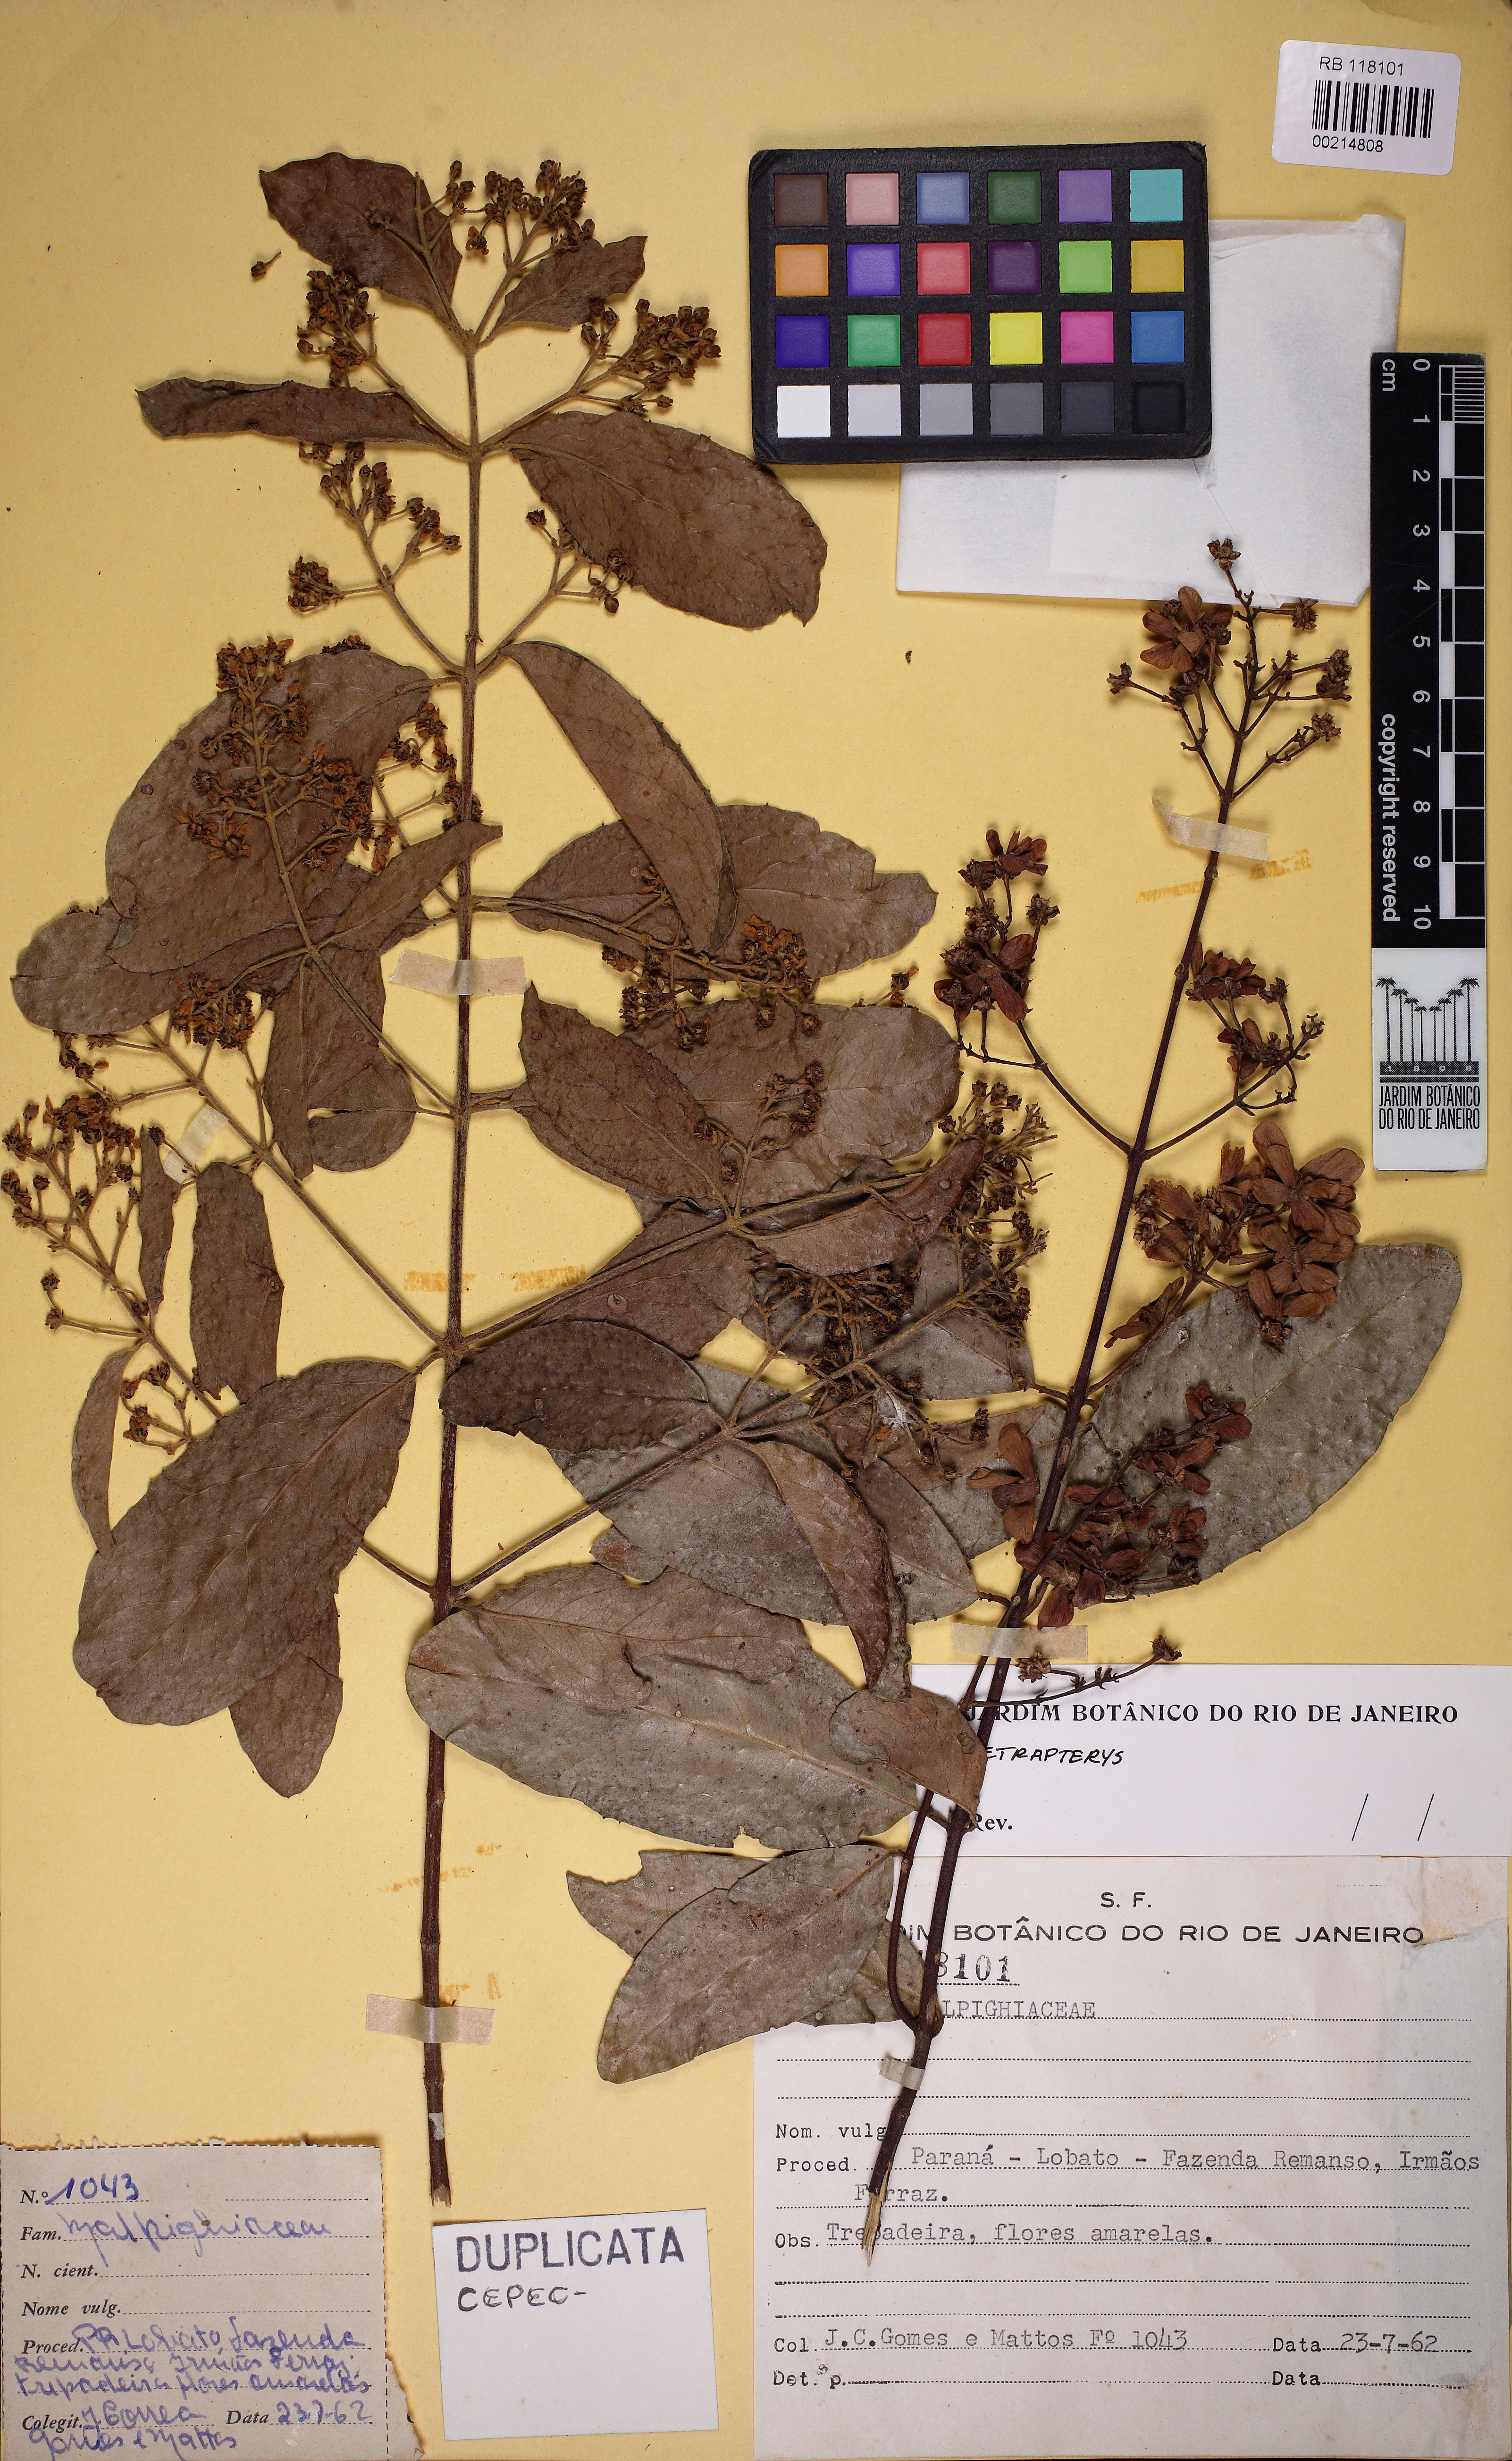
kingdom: Plantae
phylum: Tracheophyta
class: Magnoliopsida
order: Malpighiales
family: Malpighiaceae
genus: Niedenzuella
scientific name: Niedenzuella multiglandulosa
